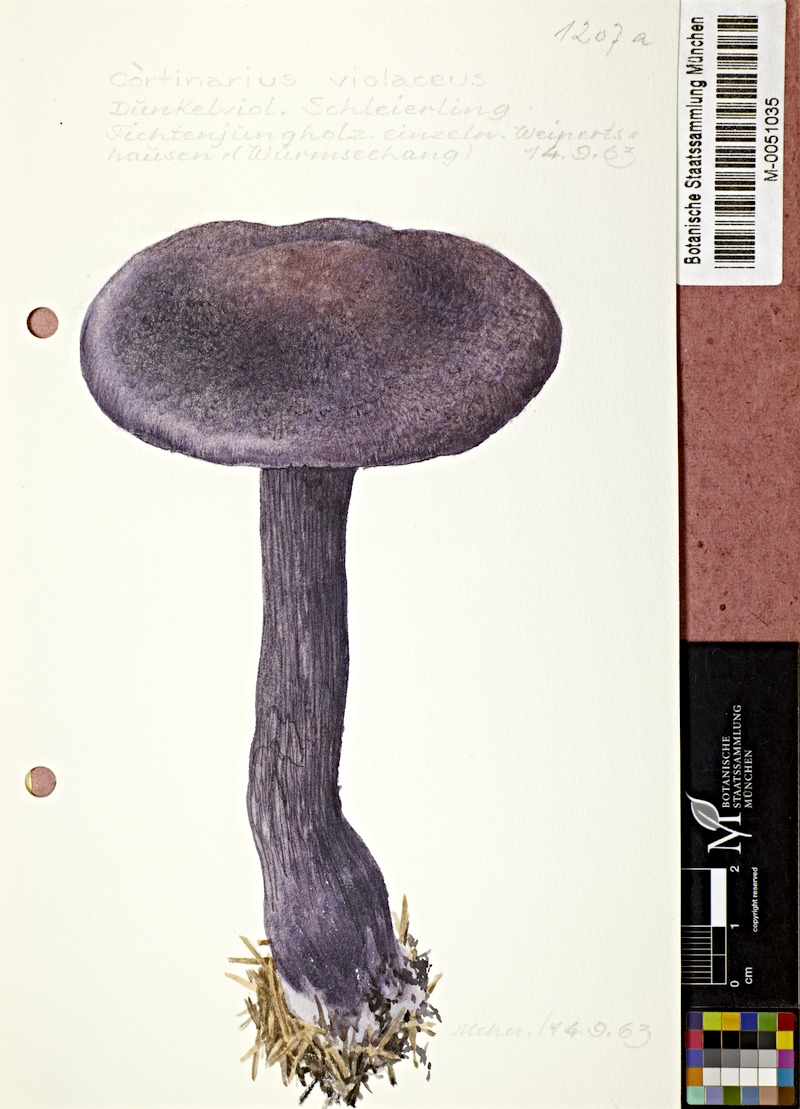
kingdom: Fungi
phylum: Basidiomycota
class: Agaricomycetes
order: Agaricales
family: Cortinariaceae
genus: Cortinarius
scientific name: Cortinarius violaceus
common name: Violet webcap
